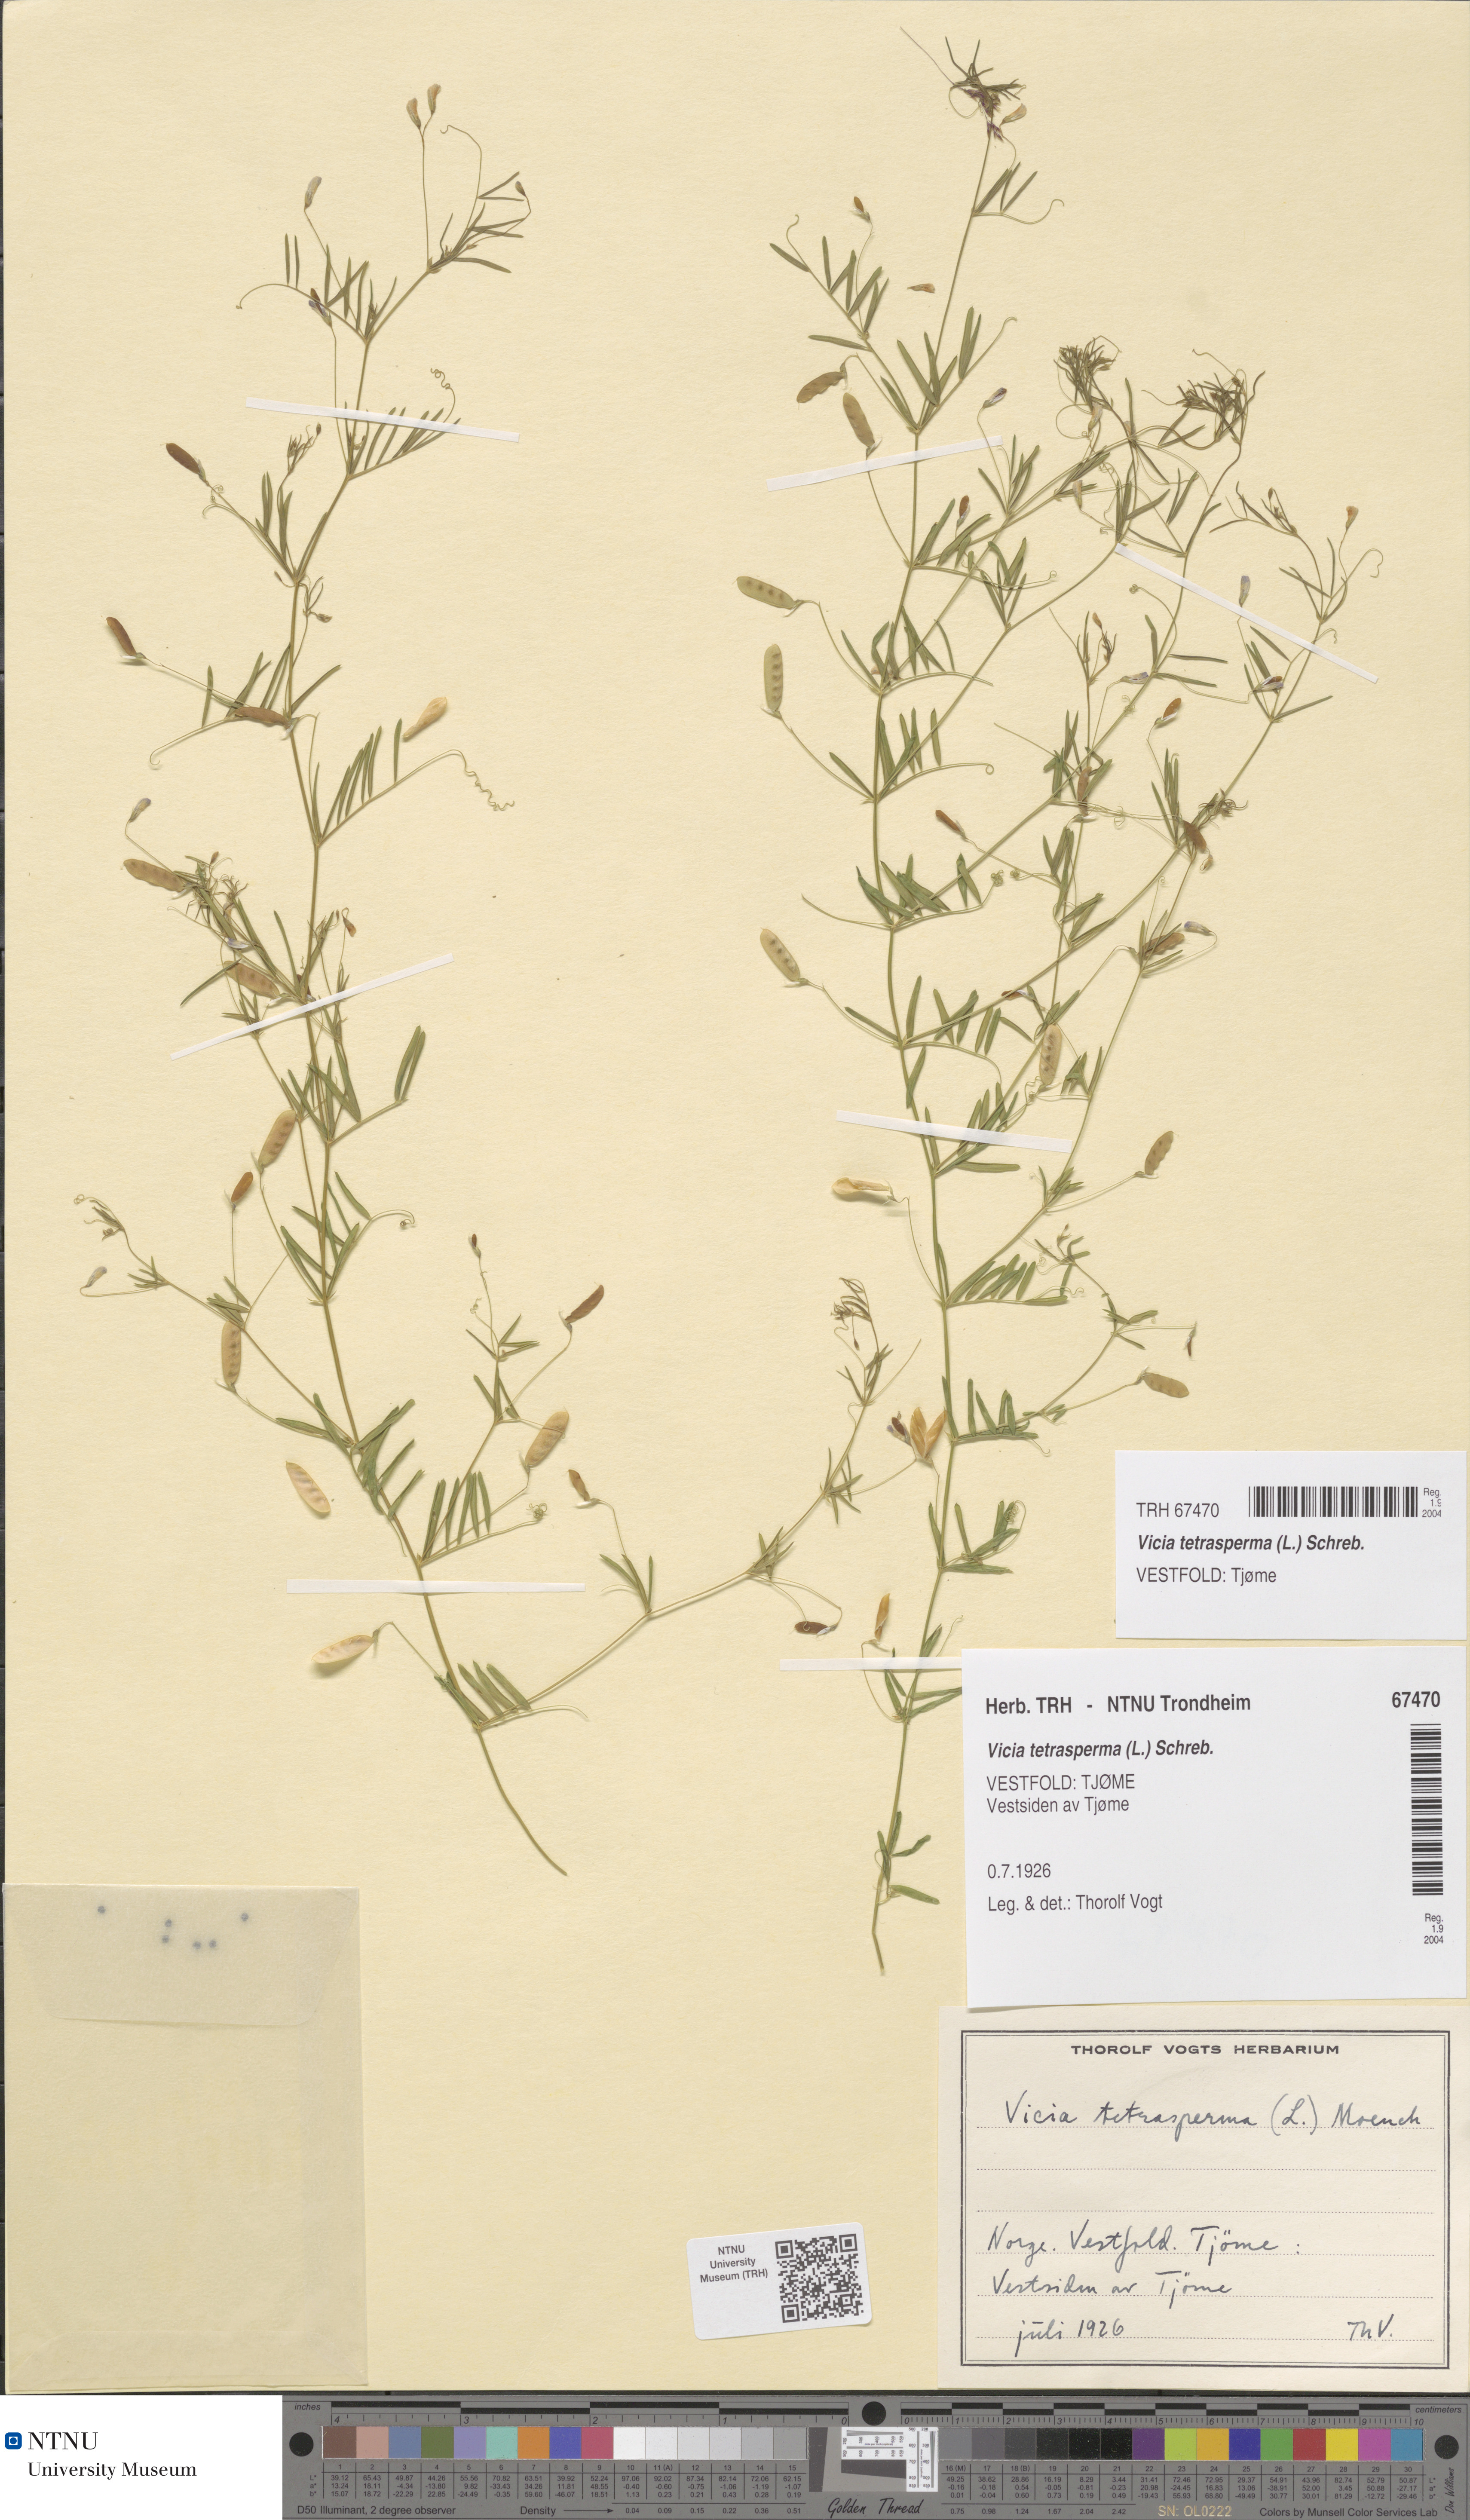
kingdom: Plantae
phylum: Tracheophyta
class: Magnoliopsida
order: Fabales
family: Fabaceae
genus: Vicia
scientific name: Vicia tetrasperma
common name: Smooth tare
